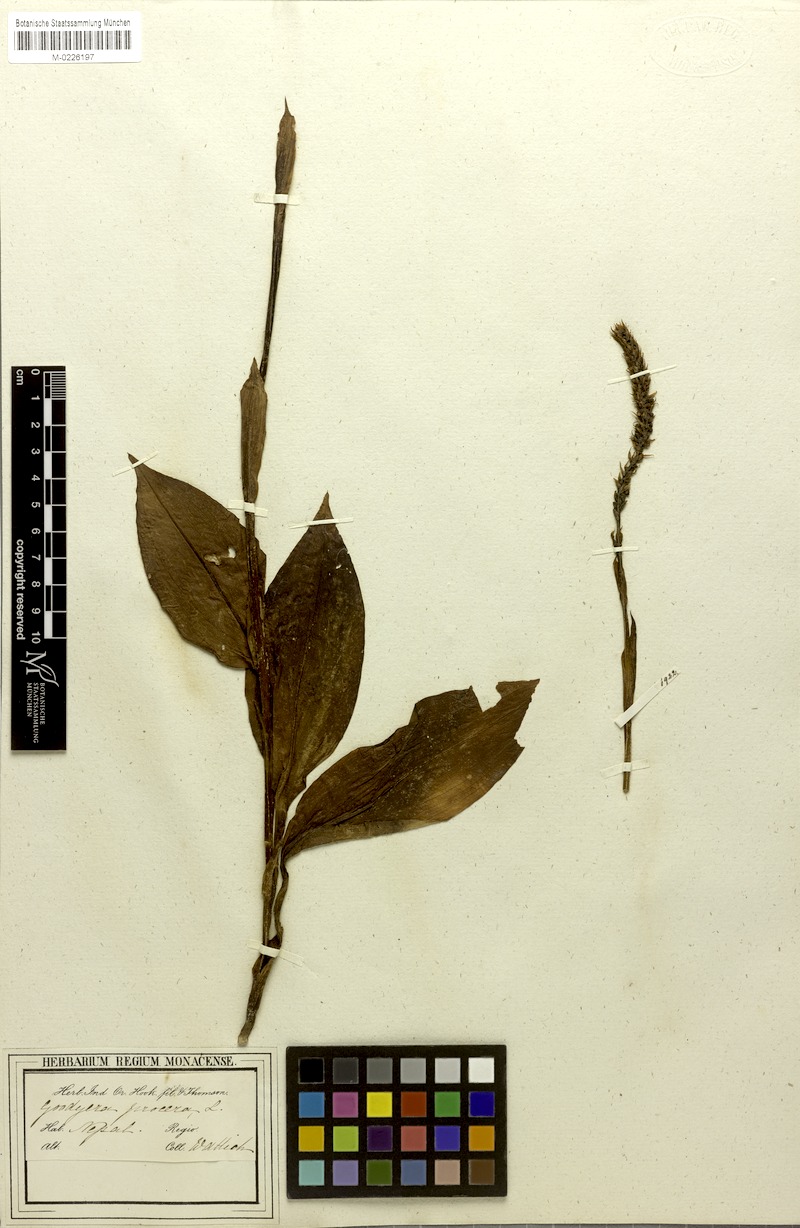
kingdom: Plantae
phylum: Tracheophyta
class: Liliopsida
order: Asparagales
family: Orchidaceae
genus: Goodyera
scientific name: Goodyera procera
